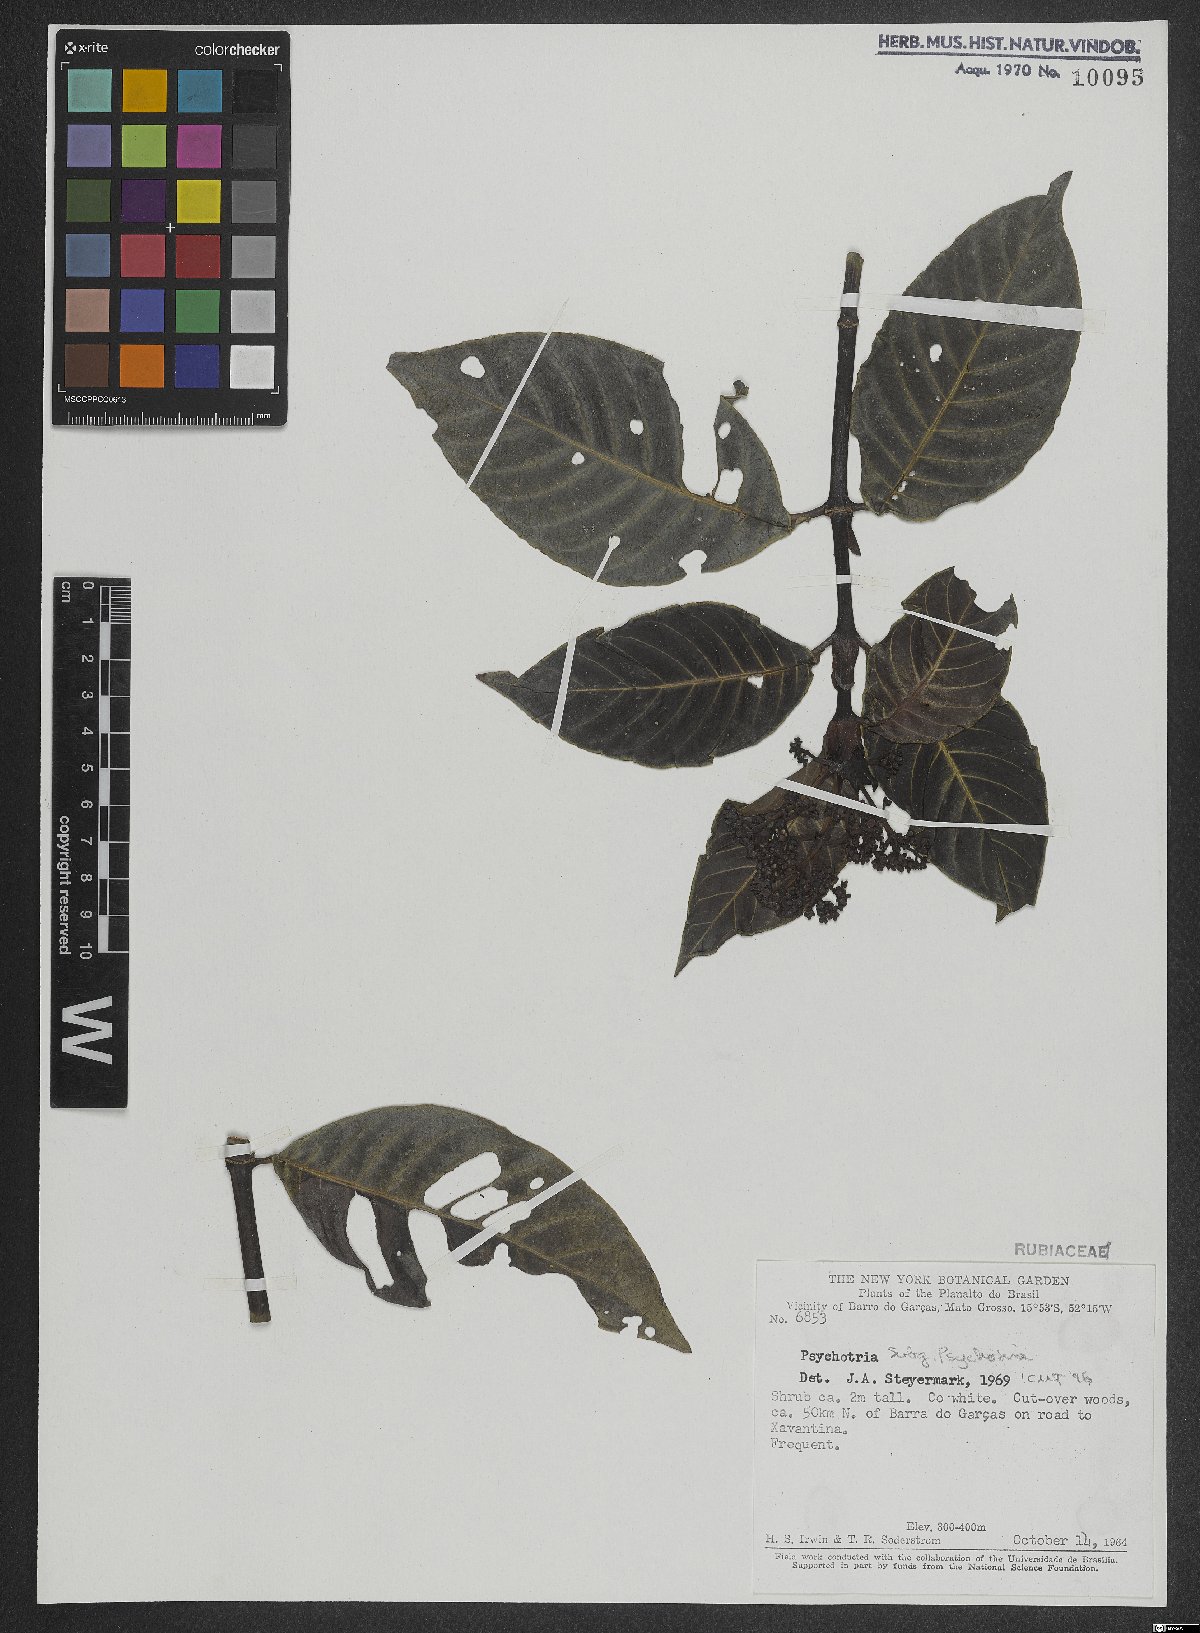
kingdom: Plantae
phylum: Tracheophyta
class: Magnoliopsida
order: Gentianales
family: Rubiaceae
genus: Psychotria
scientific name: Psychotria
